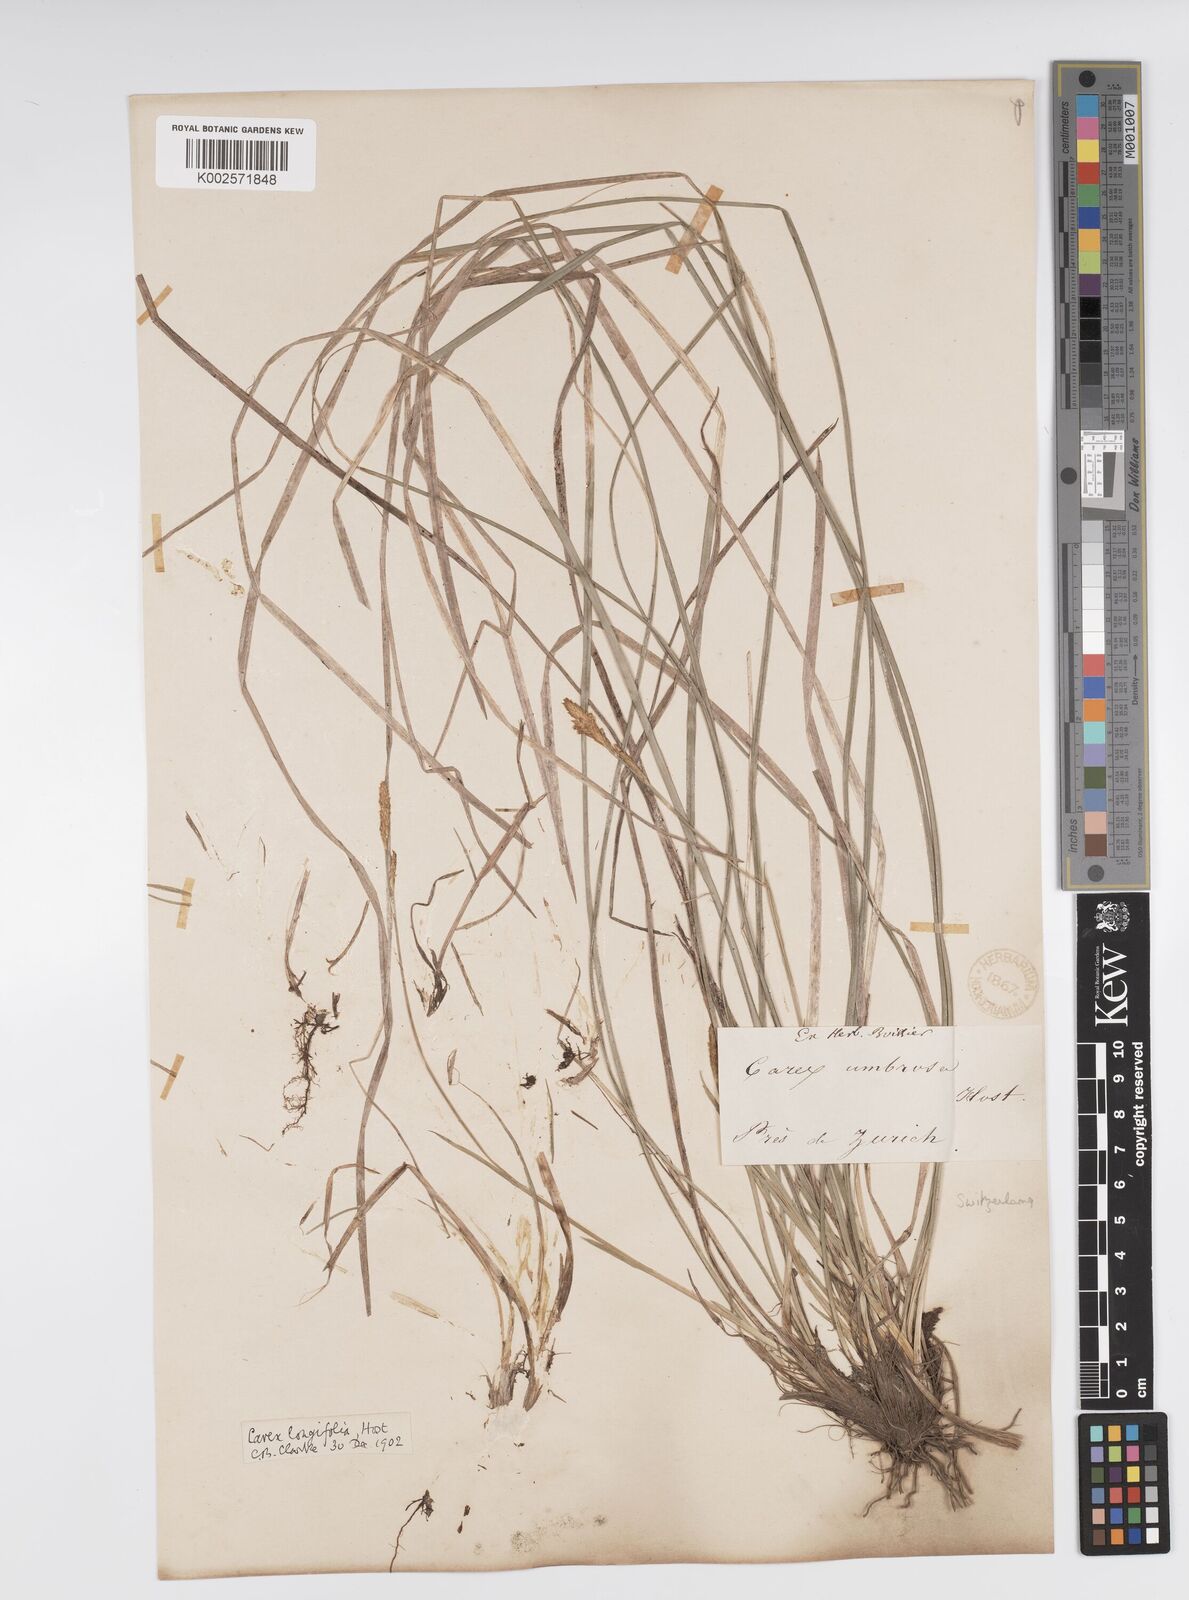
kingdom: Plantae
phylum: Tracheophyta
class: Liliopsida
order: Poales
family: Cyperaceae
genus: Carex
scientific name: Carex umbrosa
